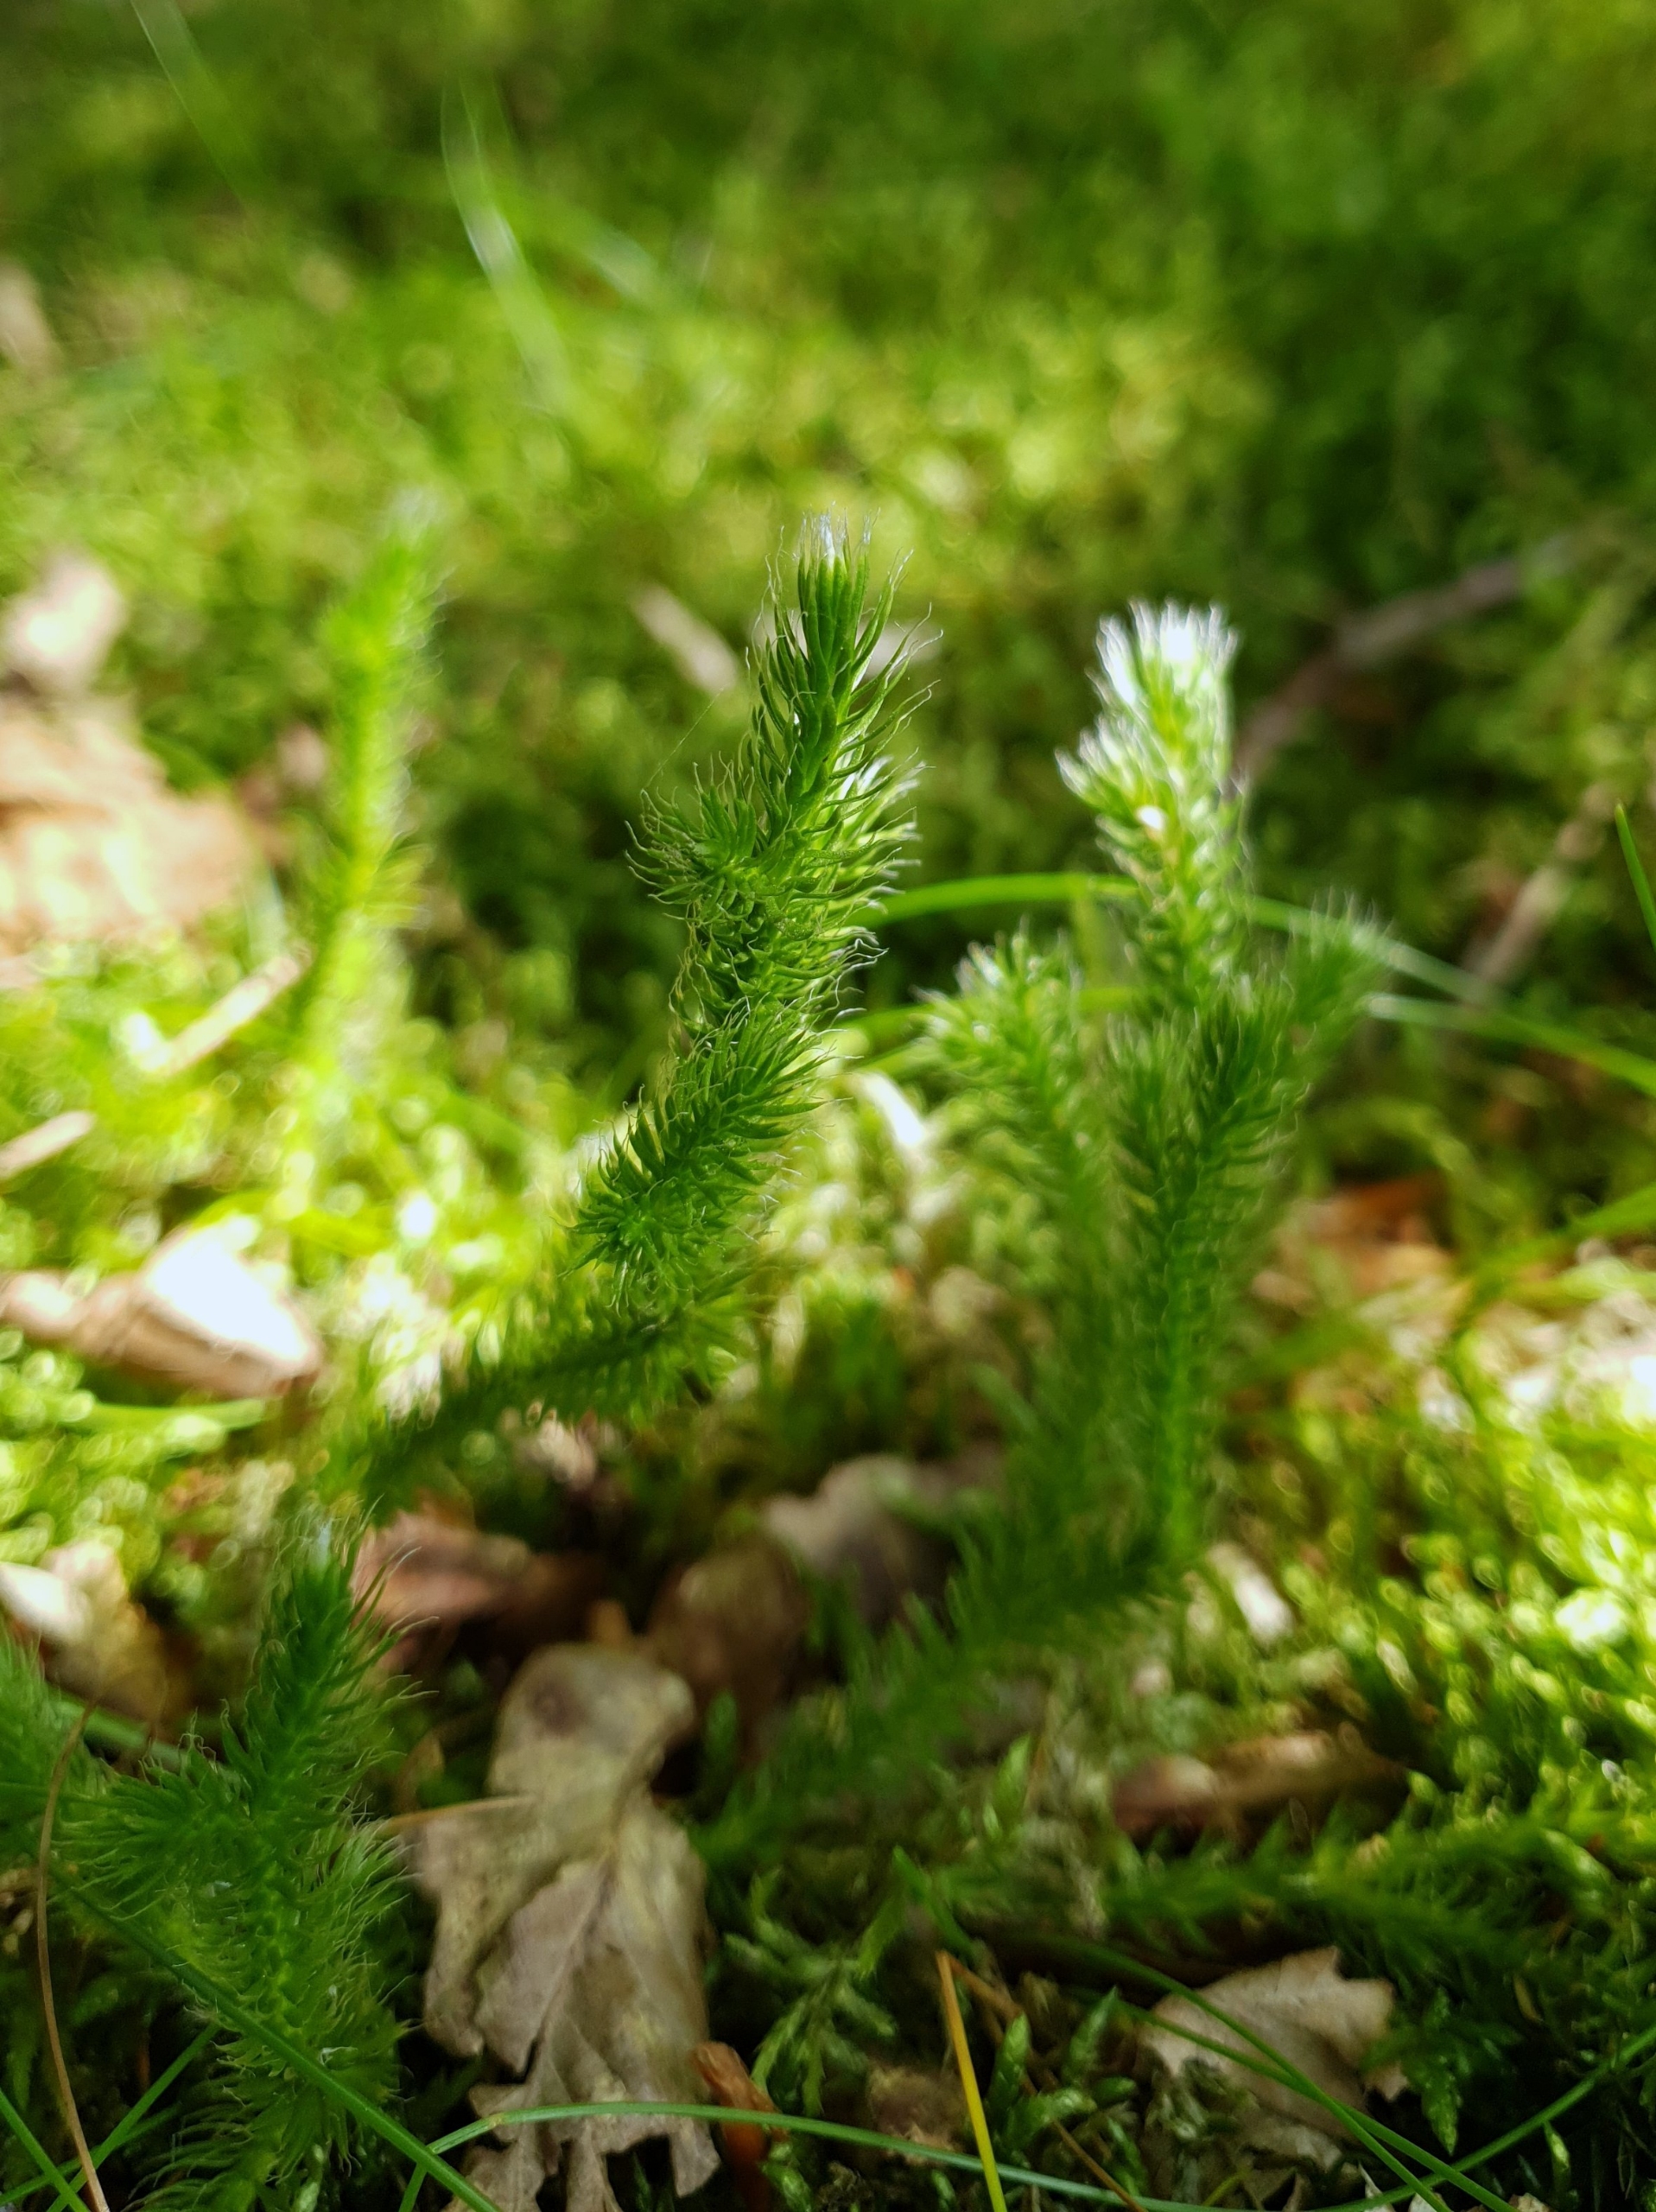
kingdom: Plantae
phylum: Tracheophyta
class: Lycopodiopsida
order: Lycopodiales
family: Lycopodiaceae
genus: Lycopodium
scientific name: Lycopodium clavatum
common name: Almindelig ulvefod
